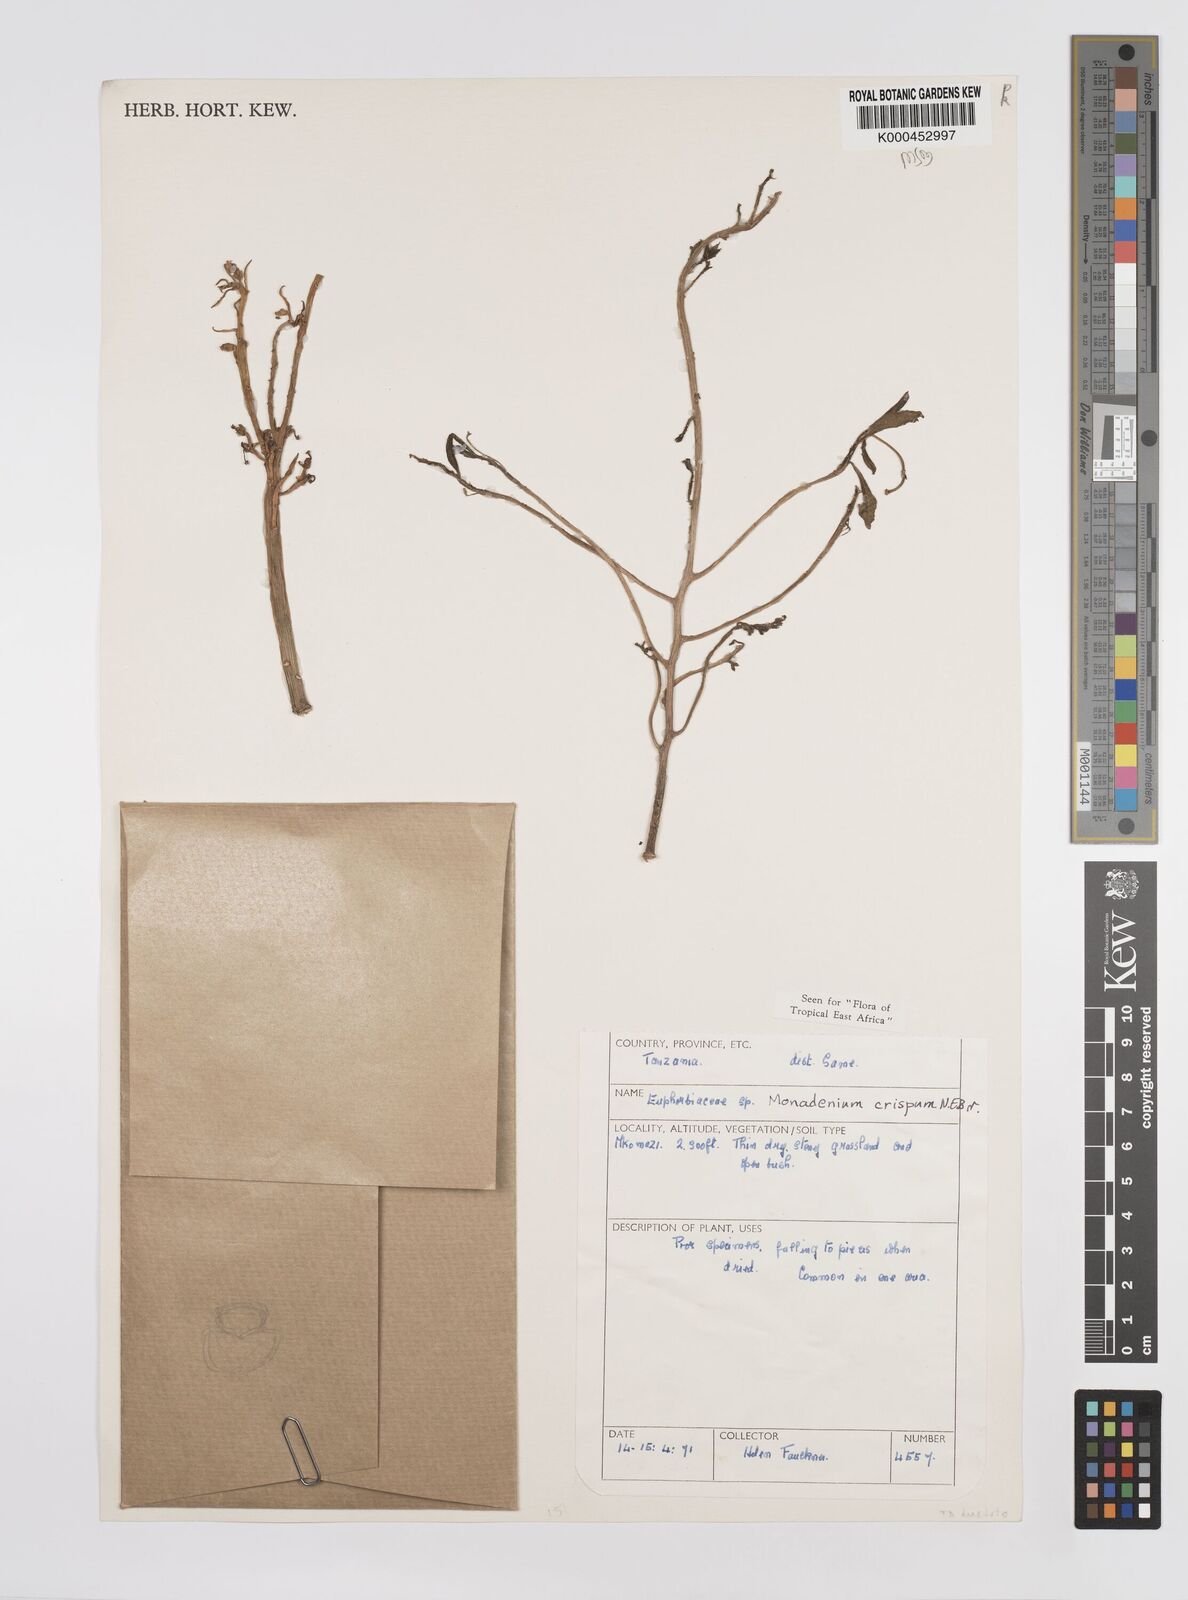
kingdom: Plantae
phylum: Tracheophyta
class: Magnoliopsida
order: Malpighiales
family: Euphorbiaceae
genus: Euphorbia
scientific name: Euphorbia neocrispa
